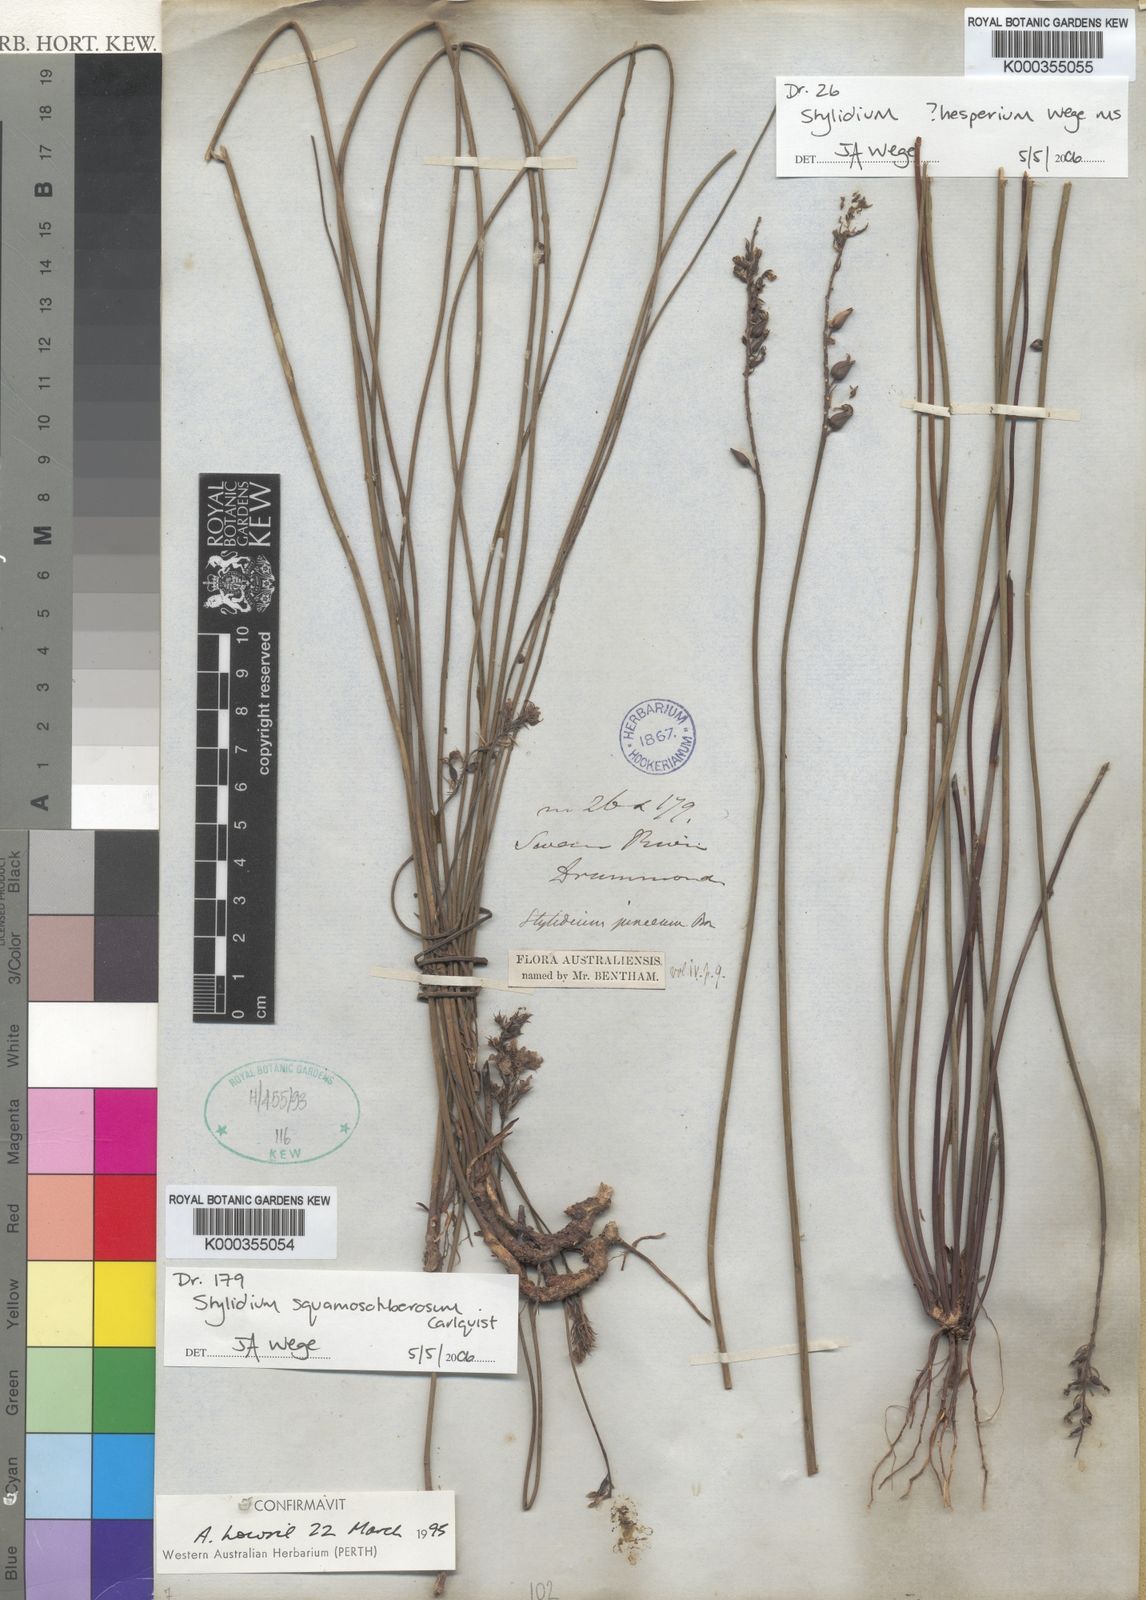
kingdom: Plantae
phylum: Tracheophyta
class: Magnoliopsida
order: Asterales
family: Stylidiaceae
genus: Stylidium
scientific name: Stylidium squamosotuberosum
